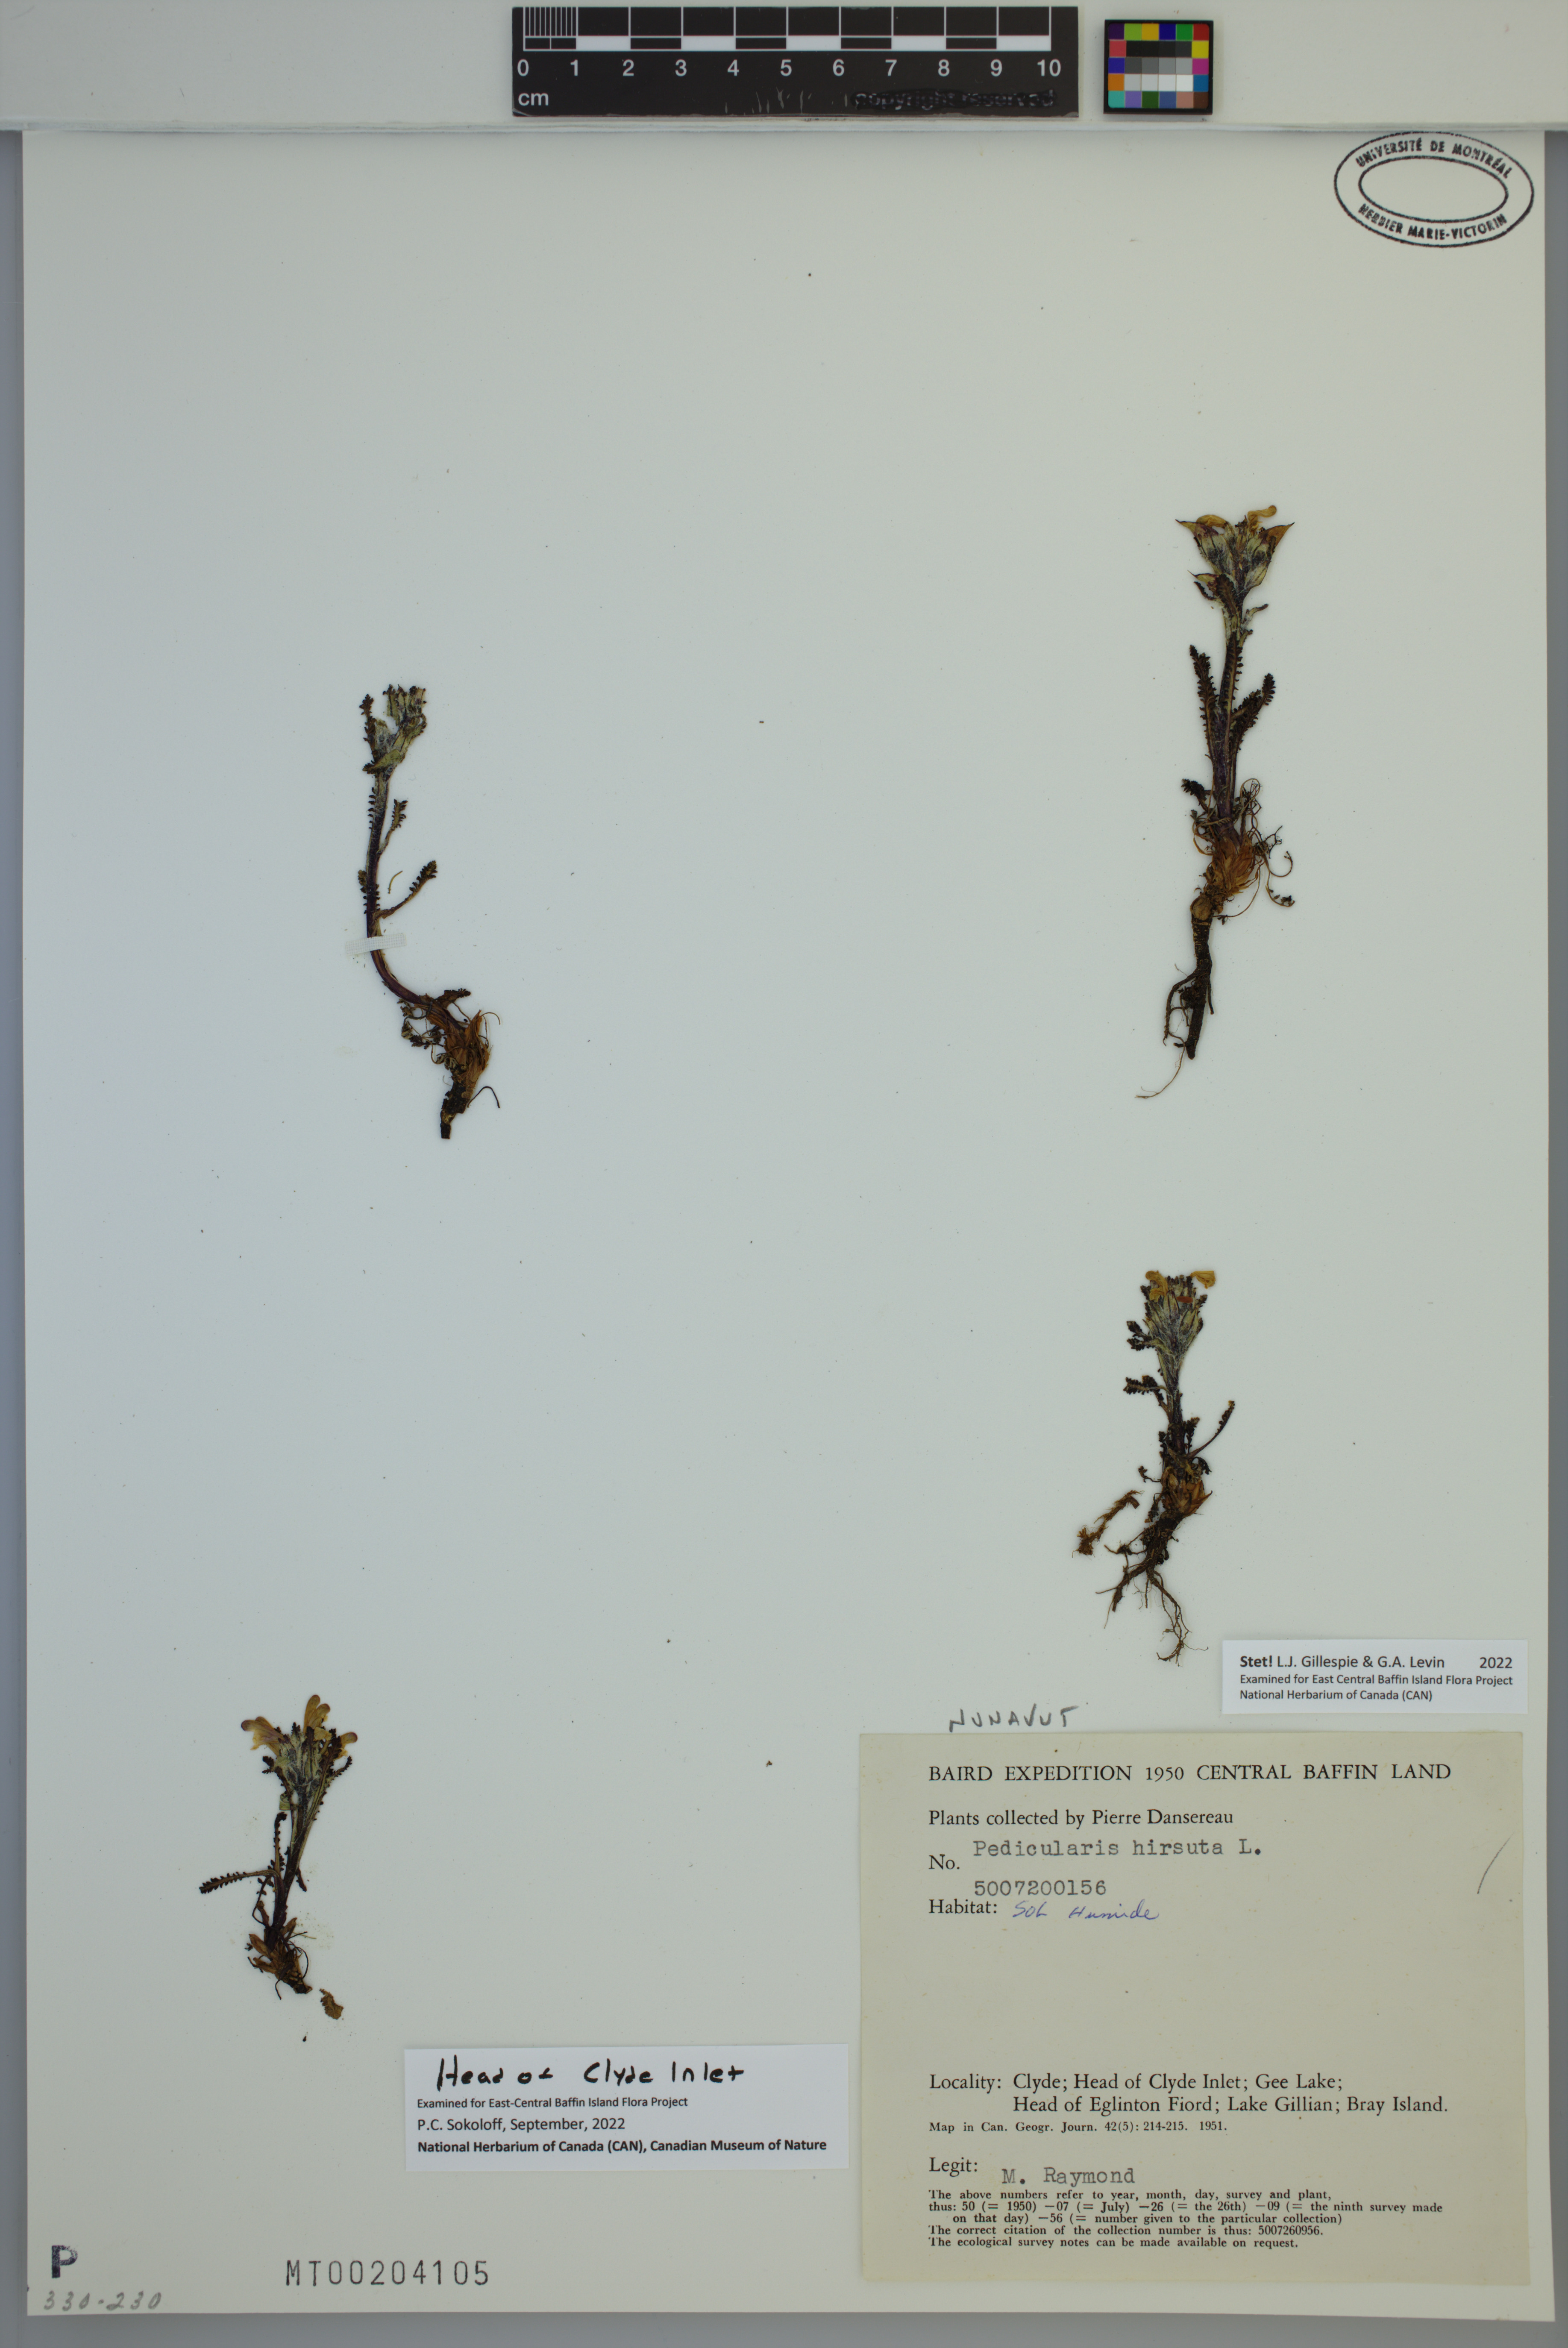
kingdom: Plantae
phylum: Tracheophyta
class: Magnoliopsida
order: Lamiales
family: Orobanchaceae
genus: Pedicularis
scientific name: Pedicularis hirsuta
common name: Hairy lousewort
